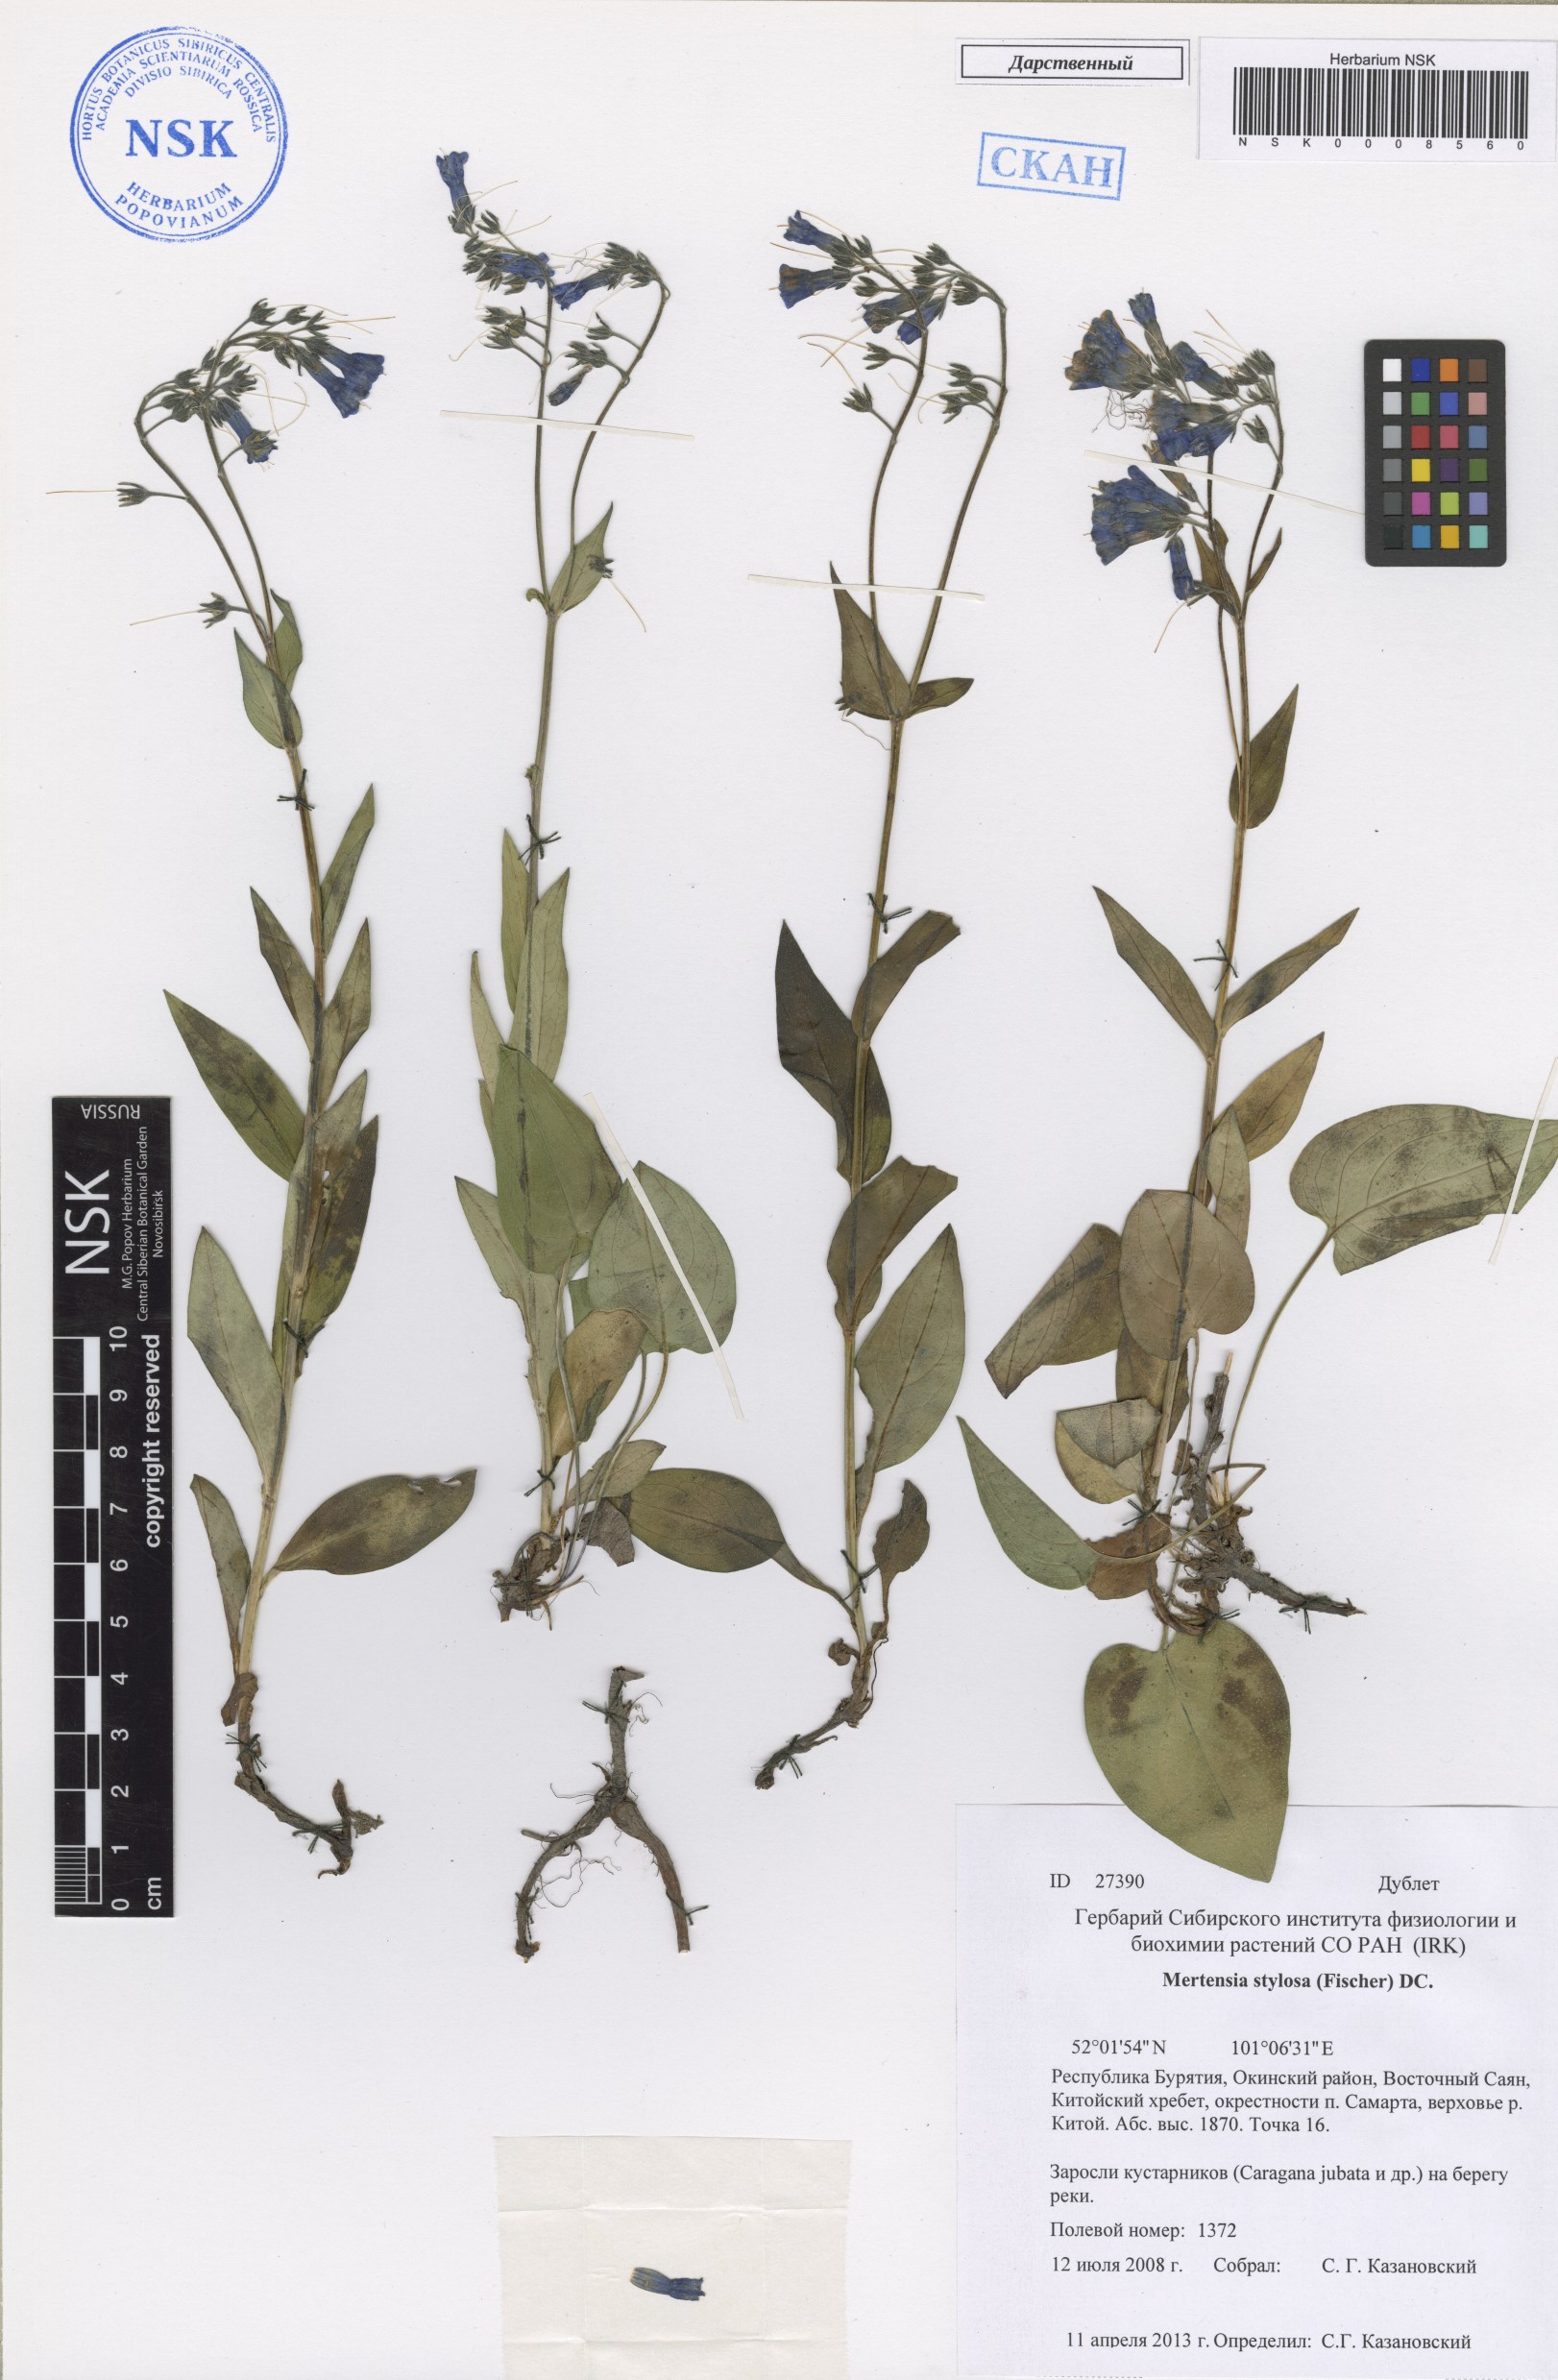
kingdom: Plantae
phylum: Tracheophyta
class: Magnoliopsida
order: Boraginales
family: Boraginaceae
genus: Mertensia
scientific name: Mertensia stylosa
